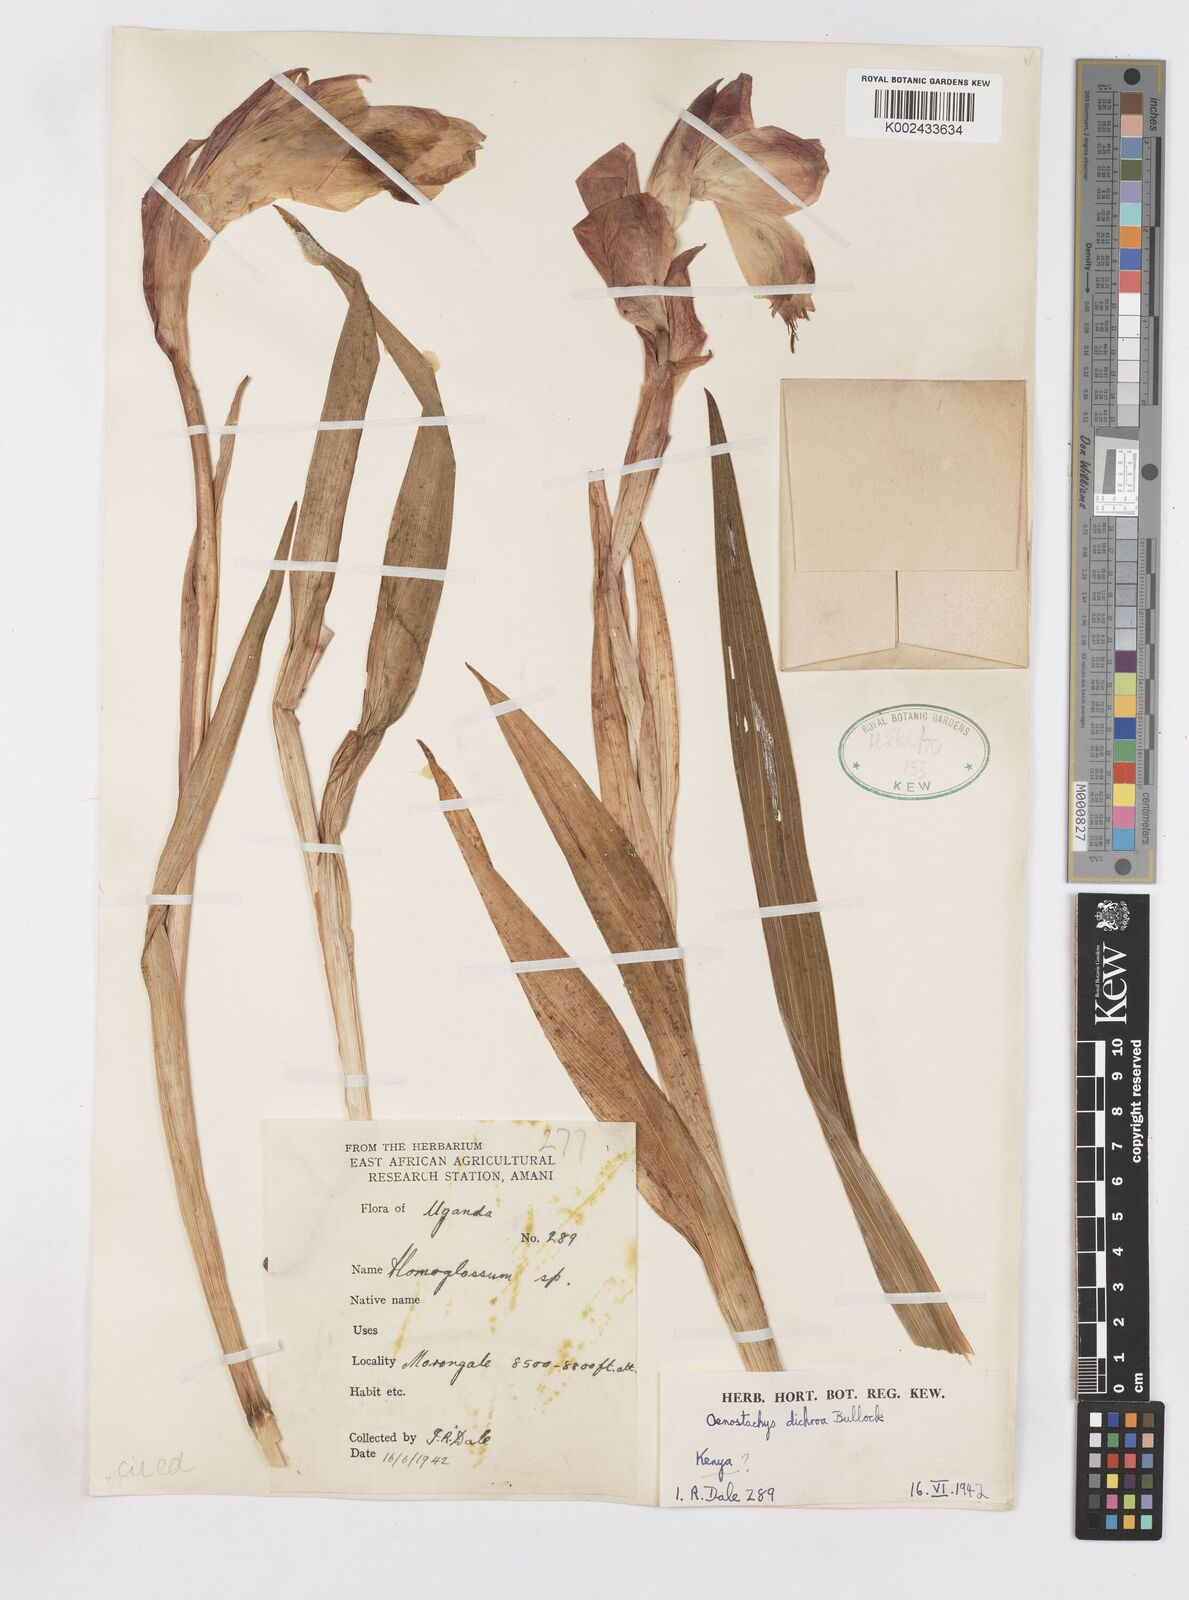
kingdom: Plantae
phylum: Tracheophyta
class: Liliopsida
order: Asparagales
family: Iridaceae
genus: Gladiolus
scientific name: Gladiolus dichrous
